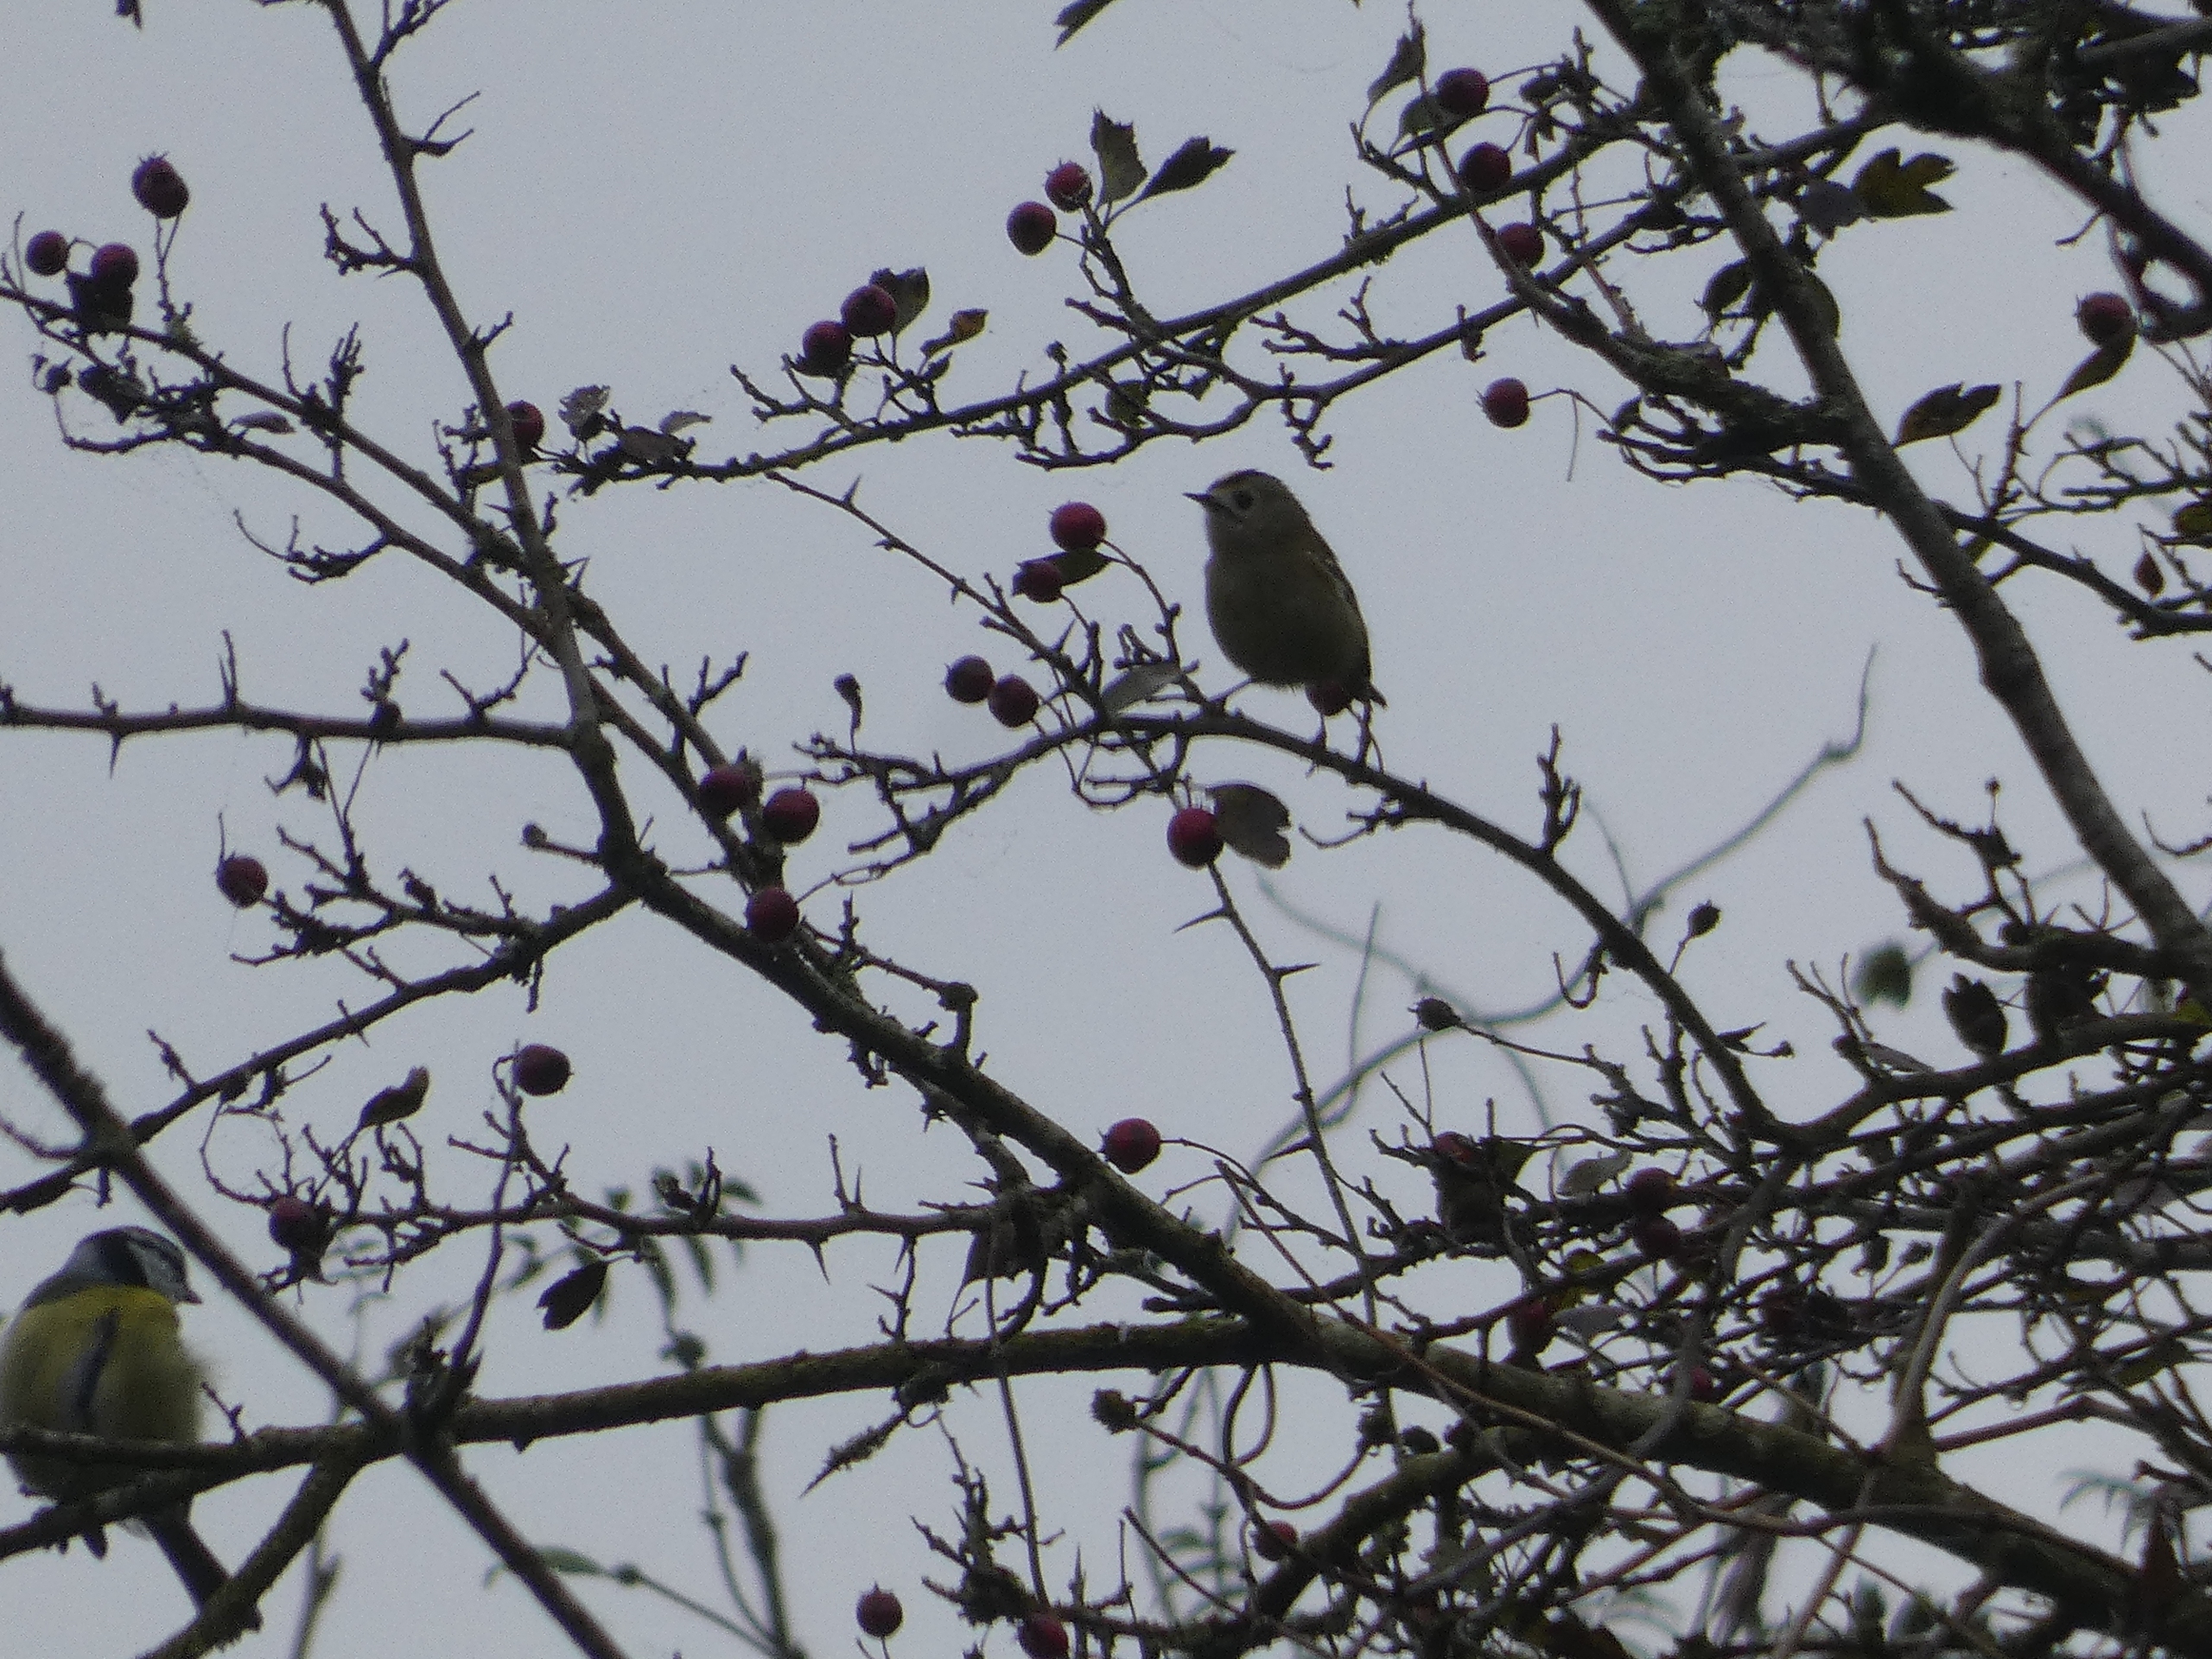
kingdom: Animalia
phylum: Chordata
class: Aves
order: Passeriformes
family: Regulidae
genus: Regulus
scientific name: Regulus regulus
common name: Fuglekonge
